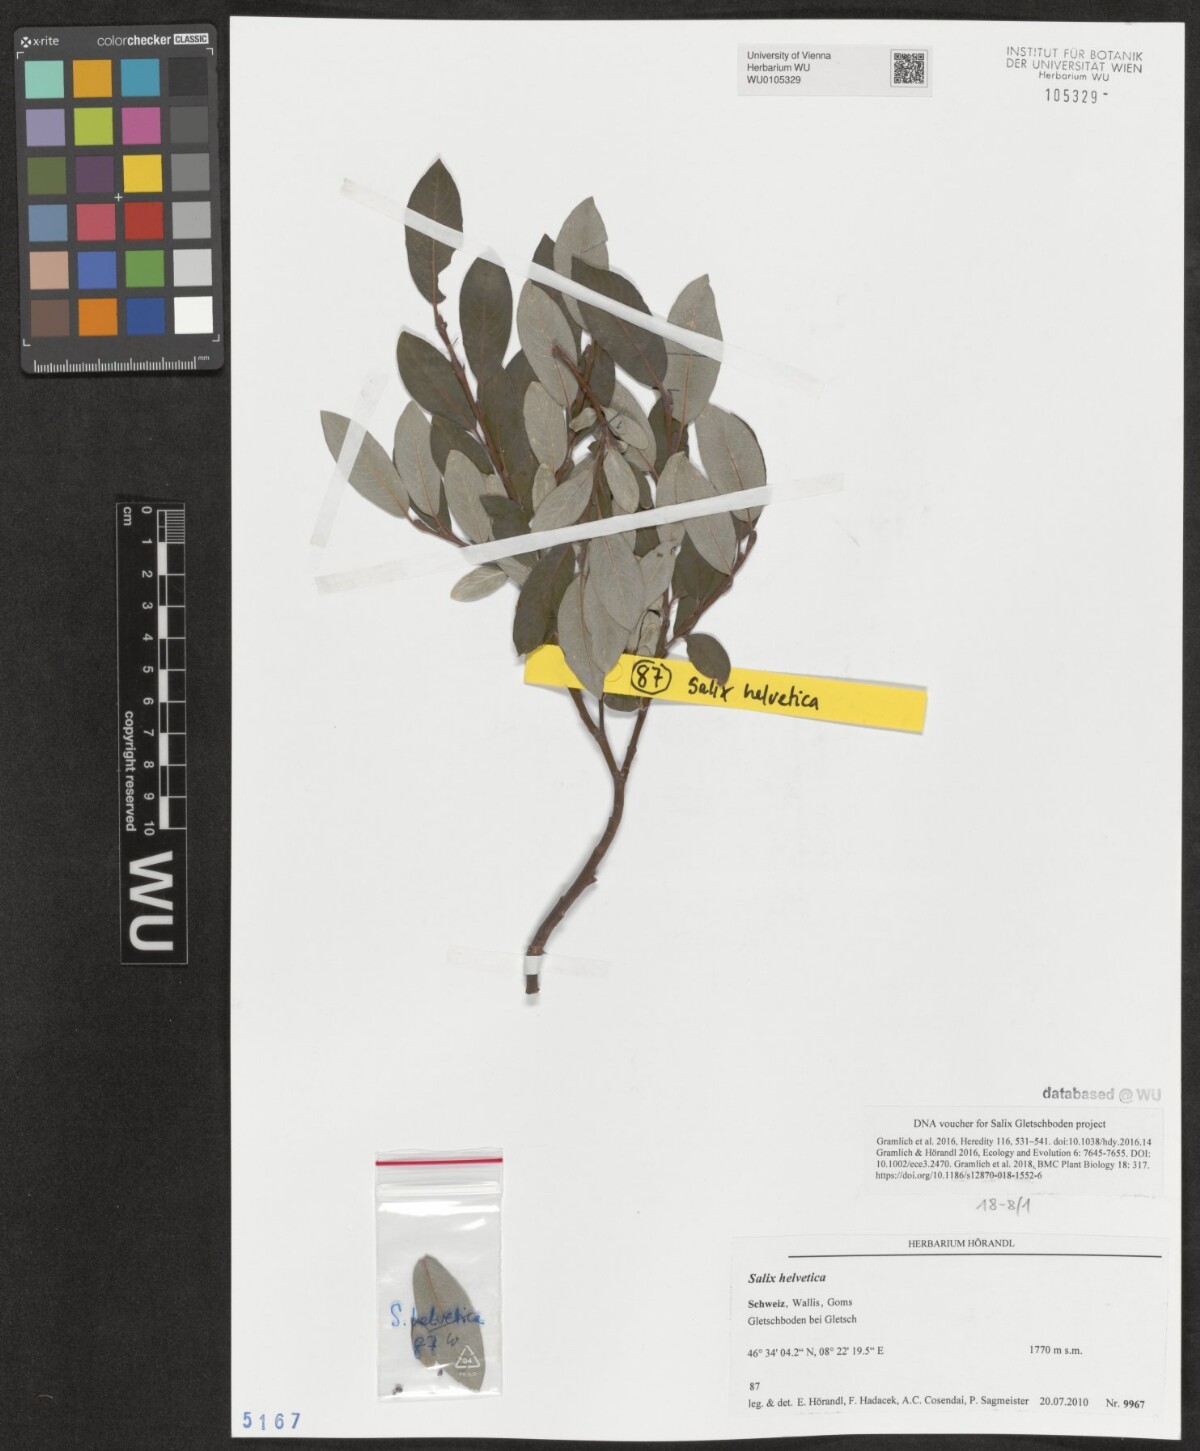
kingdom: Plantae
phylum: Tracheophyta
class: Magnoliopsida
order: Malpighiales
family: Salicaceae
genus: Salix
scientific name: Salix helvetica
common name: Swiss willow
